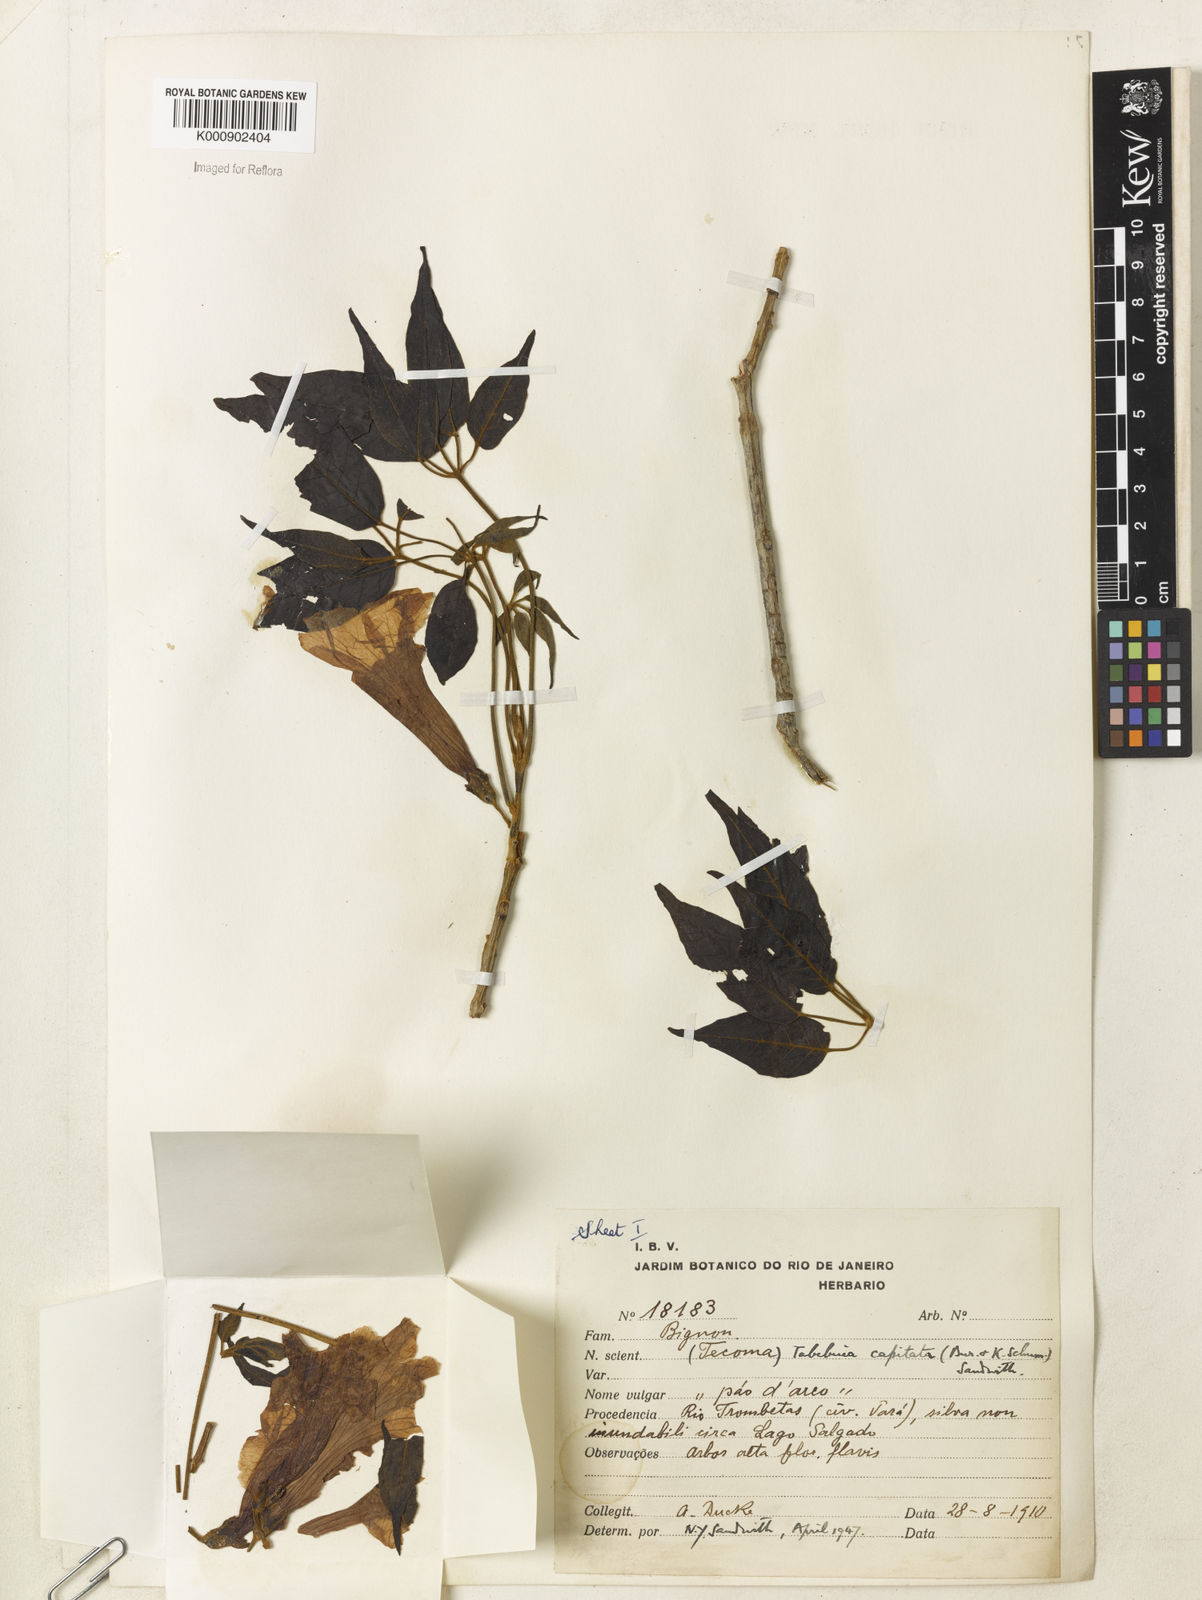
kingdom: Plantae
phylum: Tracheophyta
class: Magnoliopsida
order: Lamiales
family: Bignoniaceae
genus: Handroanthus
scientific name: Handroanthus capitatus
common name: Trumpet trees
